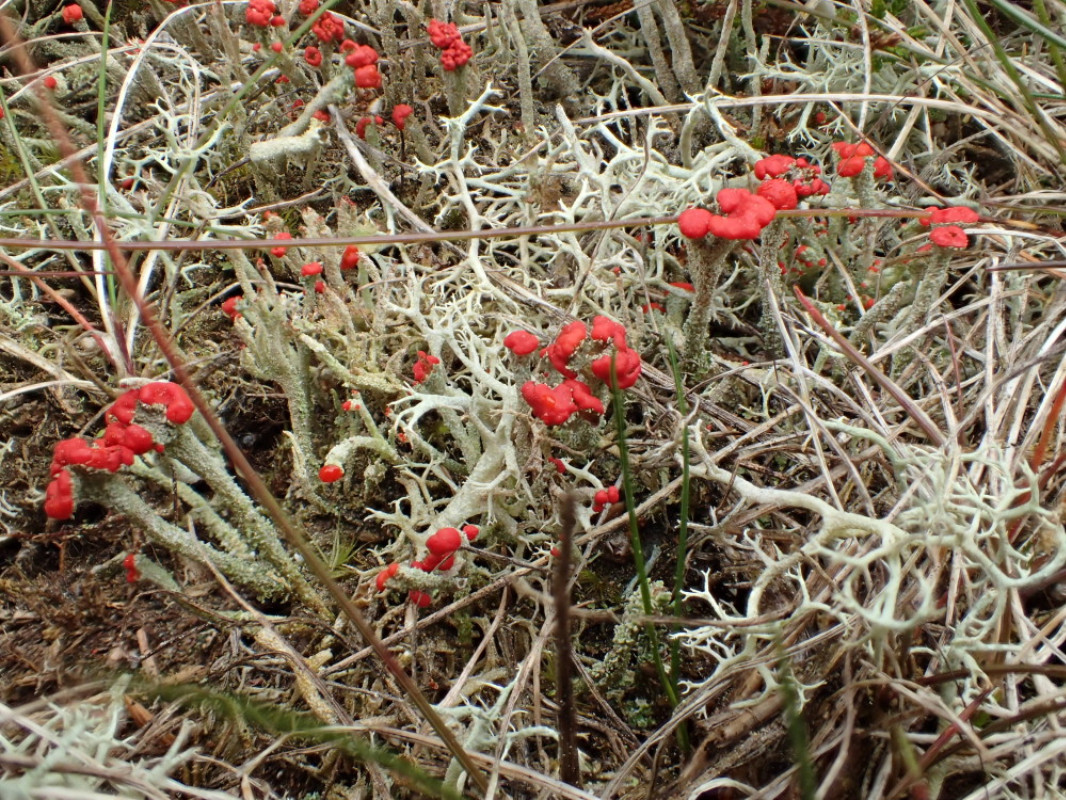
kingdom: Fungi
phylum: Ascomycota
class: Lecanoromycetes
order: Lecanorales
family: Cladoniaceae
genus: Cladonia
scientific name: Cladonia floerkeana
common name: lakrød bægerlav
